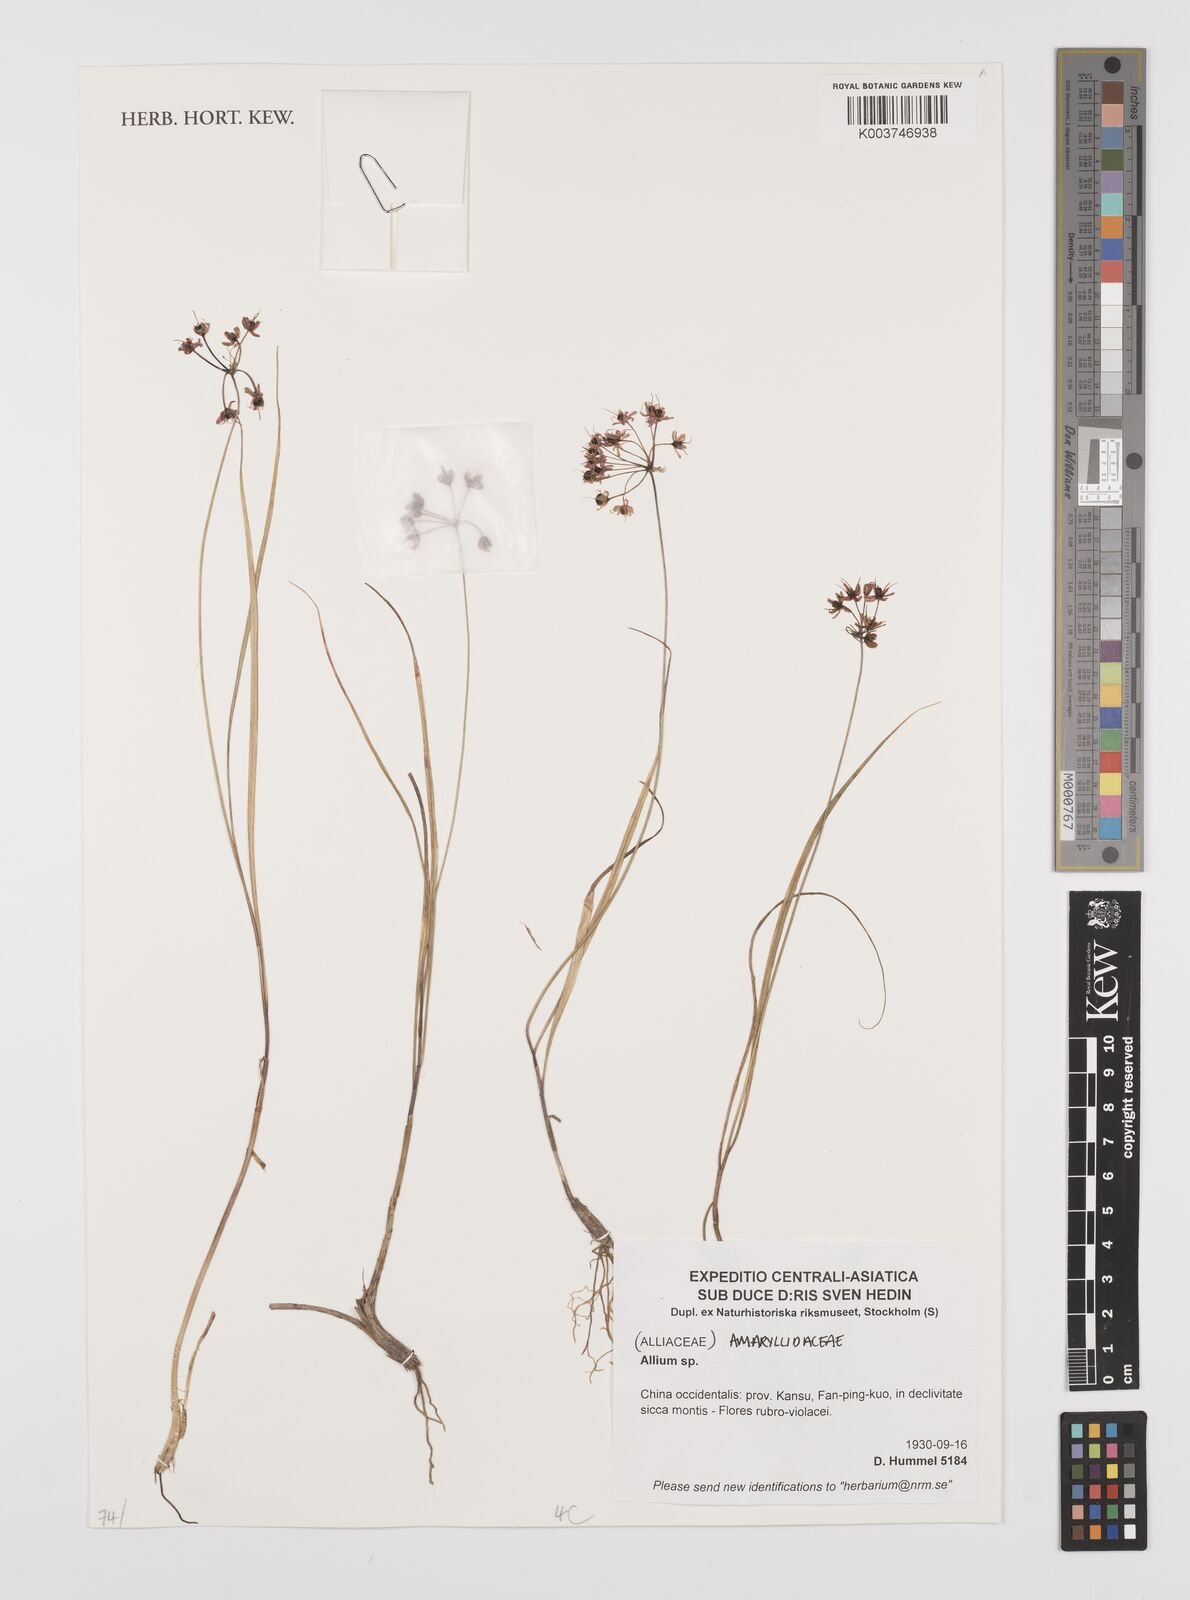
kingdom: Plantae
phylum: Tracheophyta
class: Liliopsida
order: Asparagales
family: Amaryllidaceae
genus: Allium
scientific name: Allium
